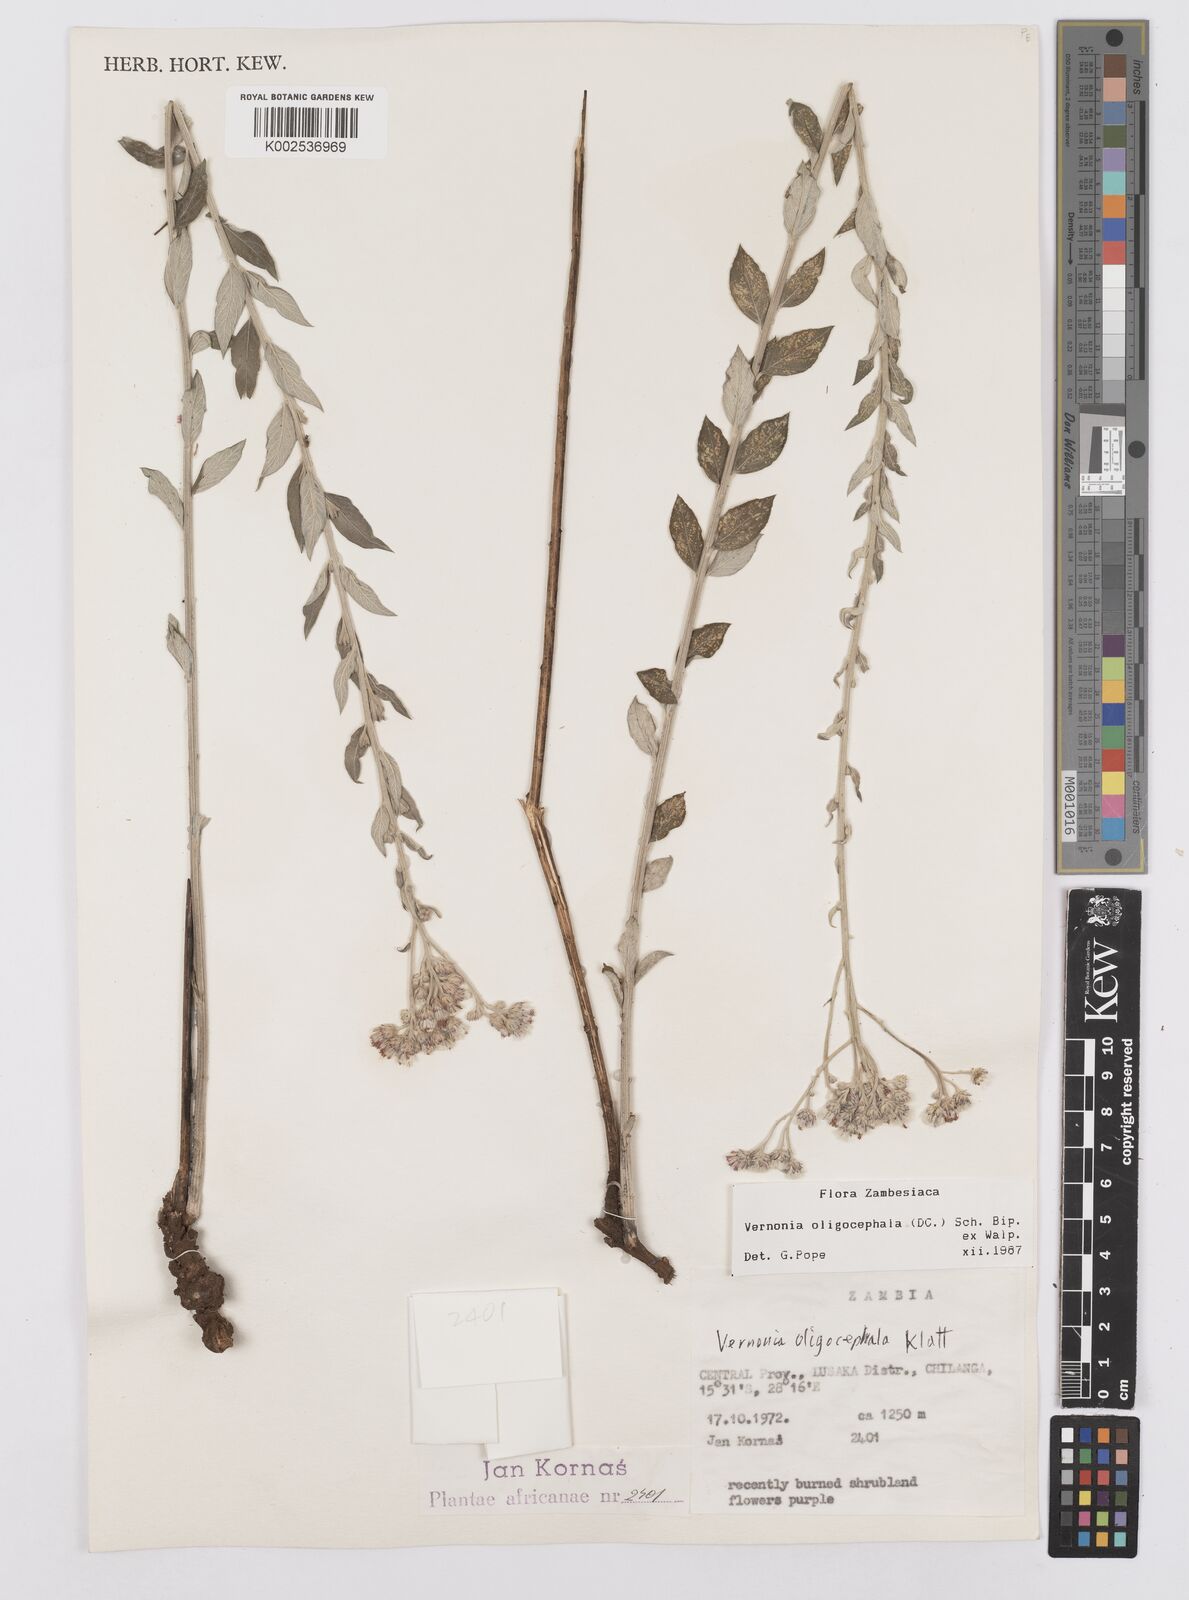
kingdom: Plantae
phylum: Tracheophyta
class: Magnoliopsida
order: Asterales
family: Asteraceae
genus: Hilliardiella
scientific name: Hilliardiella oligocephala
